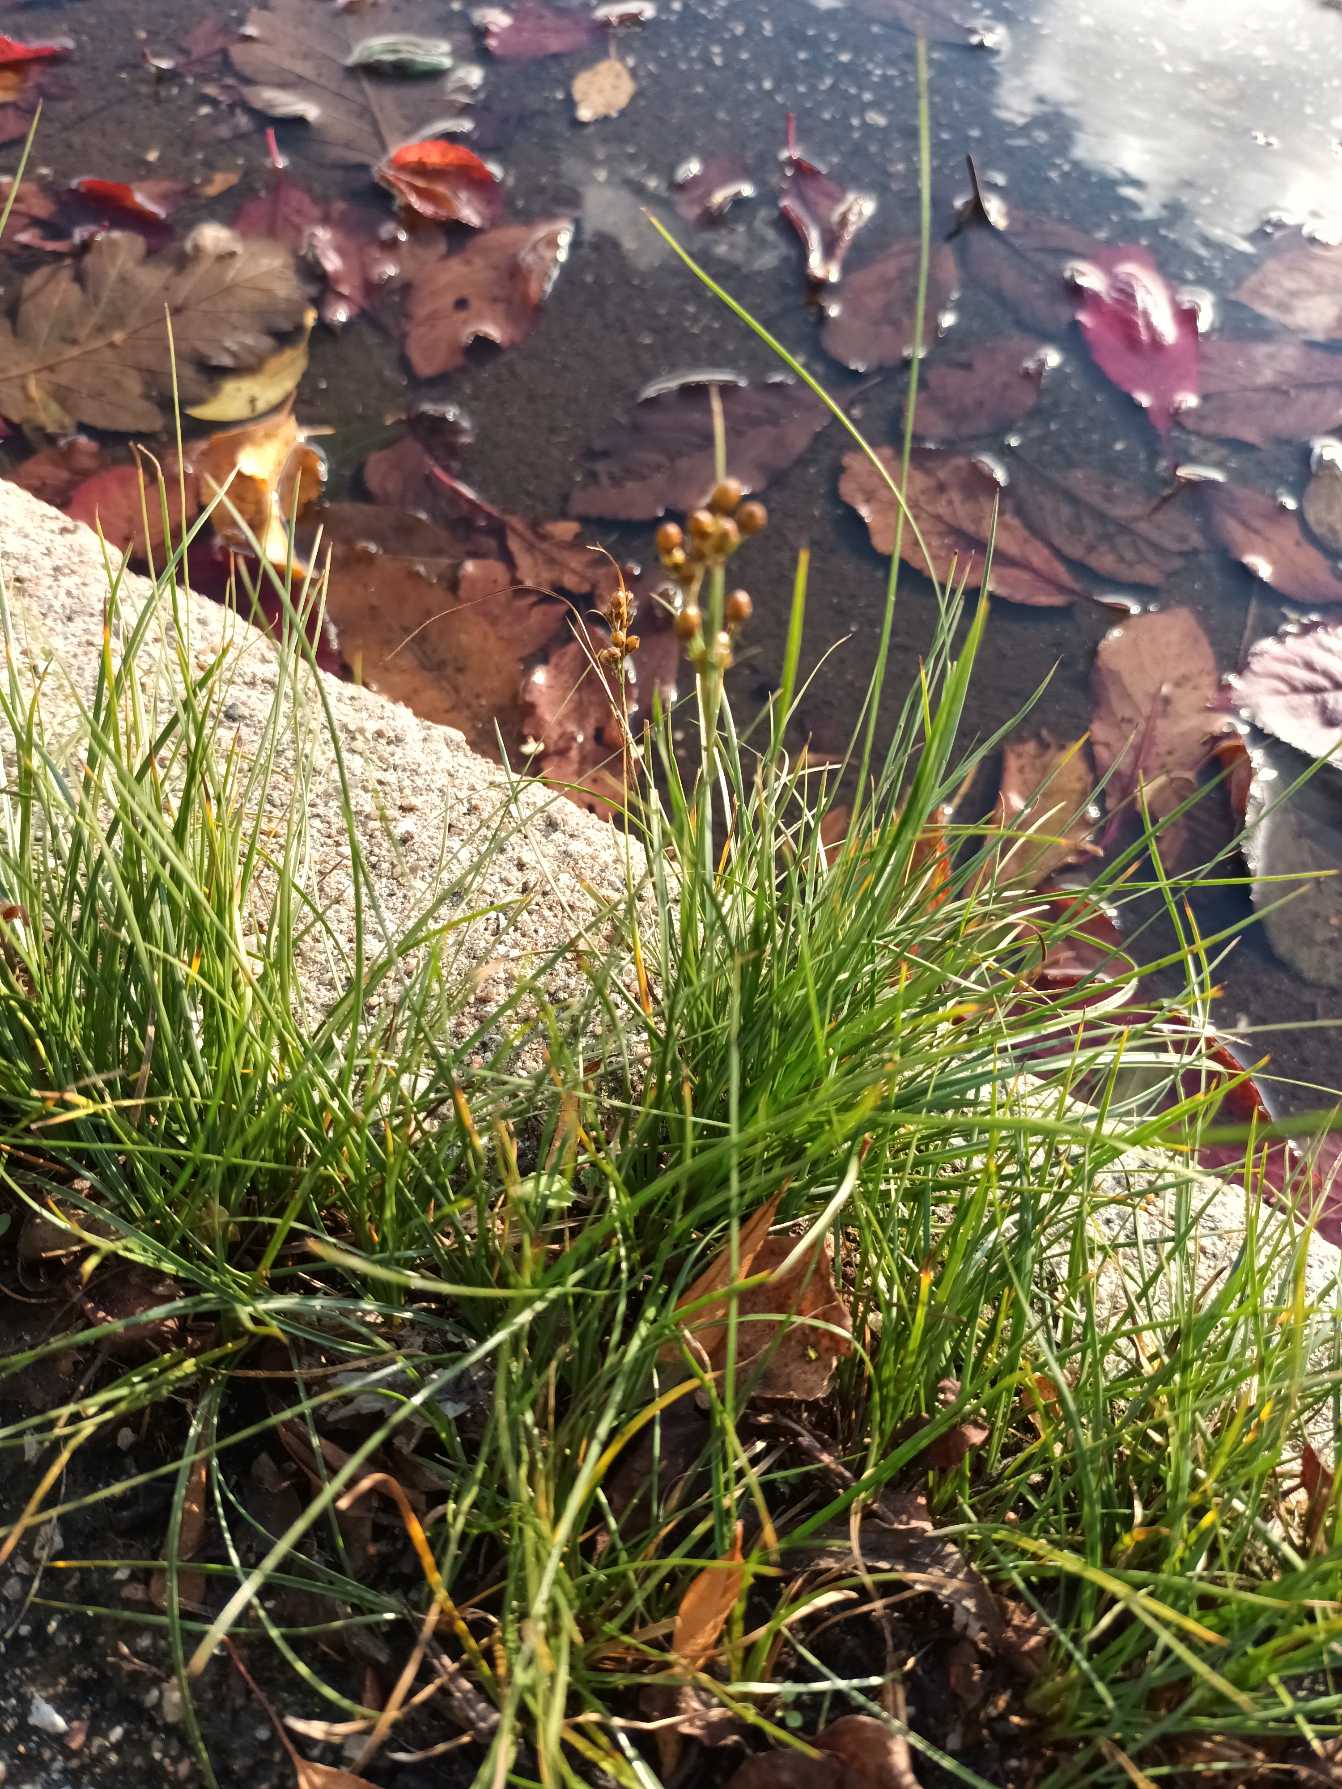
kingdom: Plantae
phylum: Tracheophyta
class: Liliopsida
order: Poales
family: Juncaceae
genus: Juncus
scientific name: Juncus compressus
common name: Fladstrået siv
